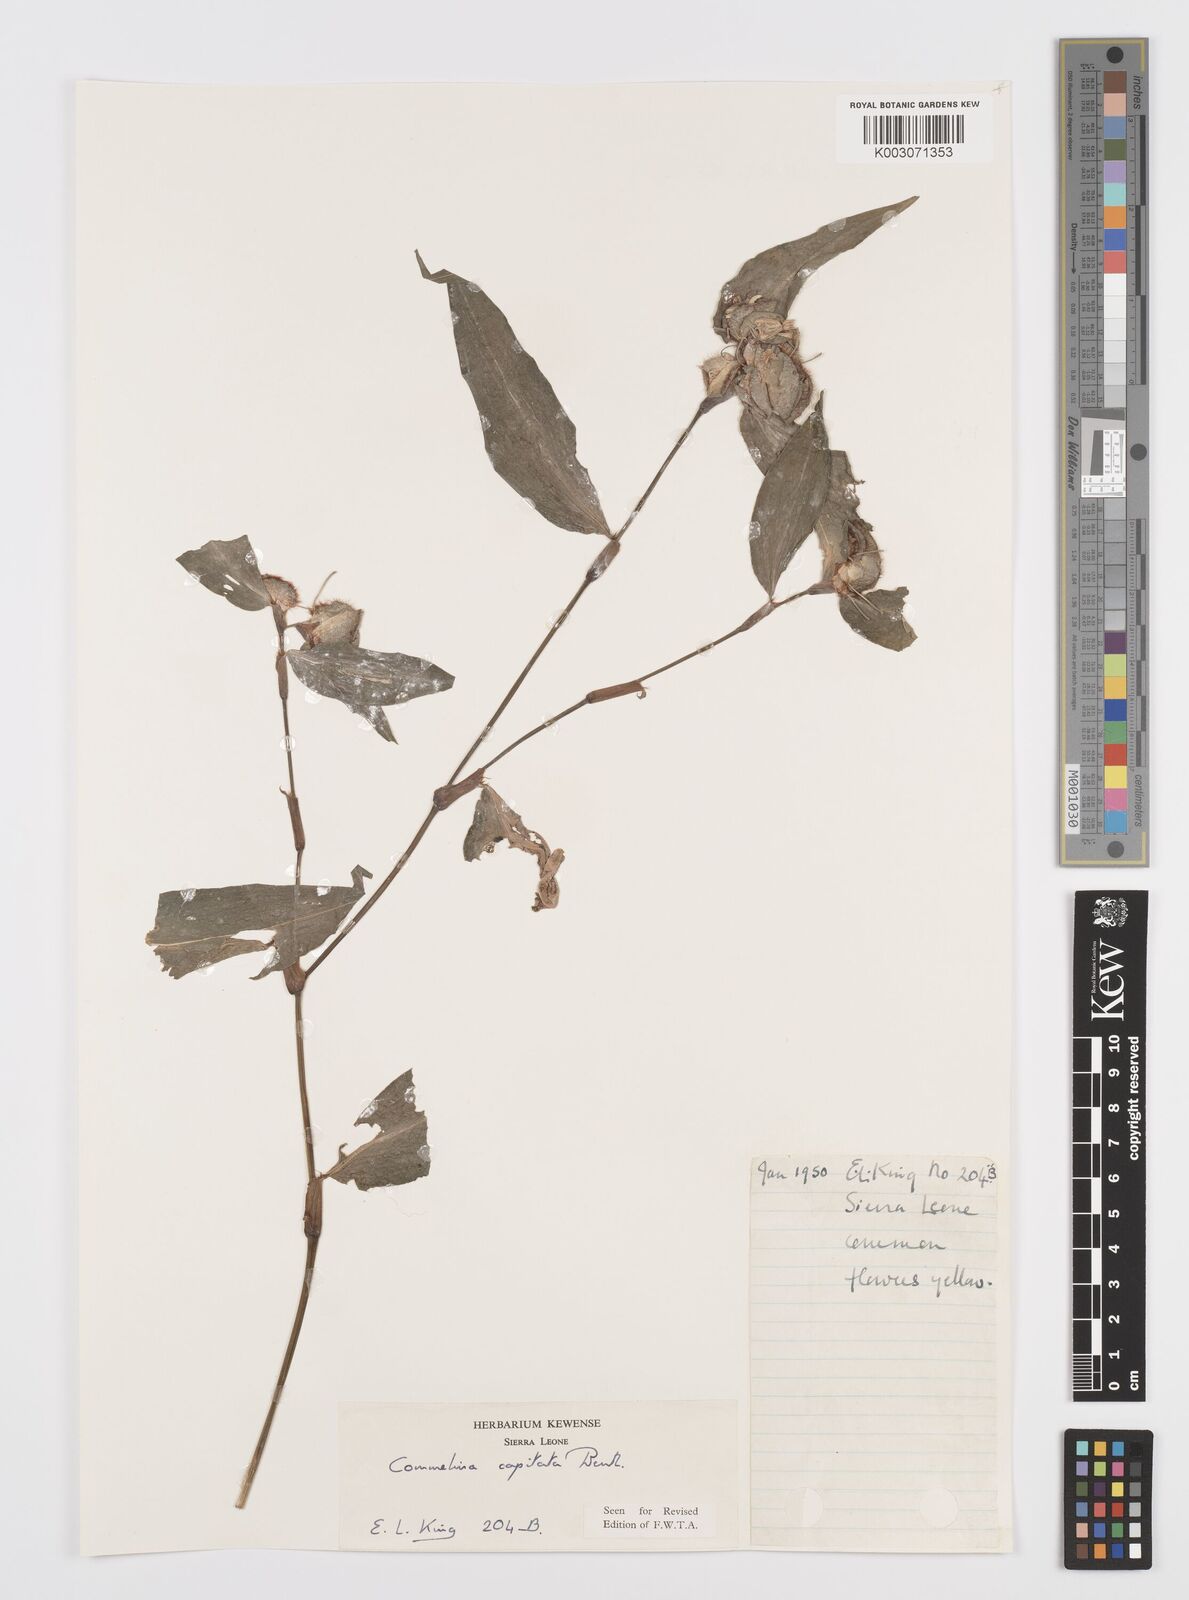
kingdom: Plantae
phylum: Tracheophyta
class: Liliopsida
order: Commelinales
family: Commelinaceae
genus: Commelina
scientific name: Commelina capitata
